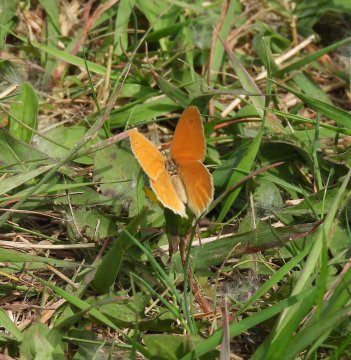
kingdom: Animalia
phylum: Arthropoda
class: Insecta
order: Lepidoptera
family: Nymphalidae
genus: Coenonympha
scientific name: Coenonympha tullia
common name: Large Heath
